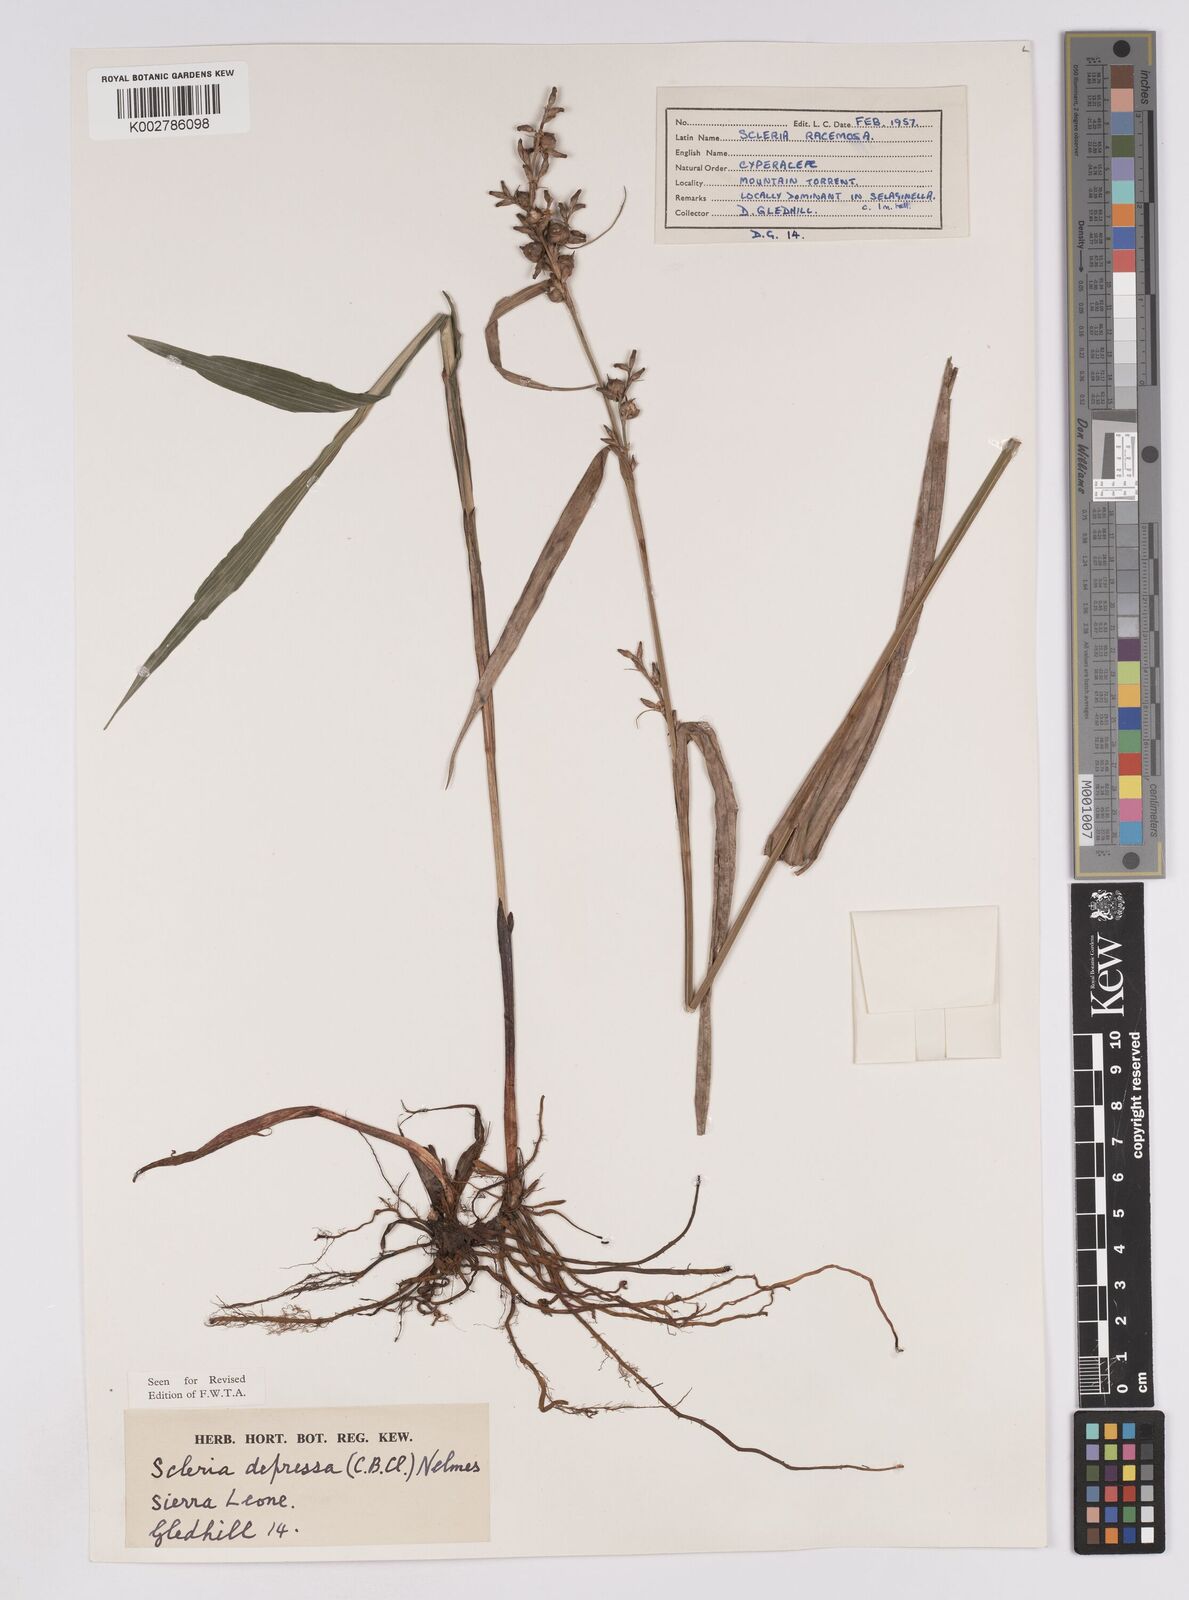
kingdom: Plantae
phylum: Tracheophyta
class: Liliopsida
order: Poales
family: Cyperaceae
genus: Scleria
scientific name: Scleria depressa
